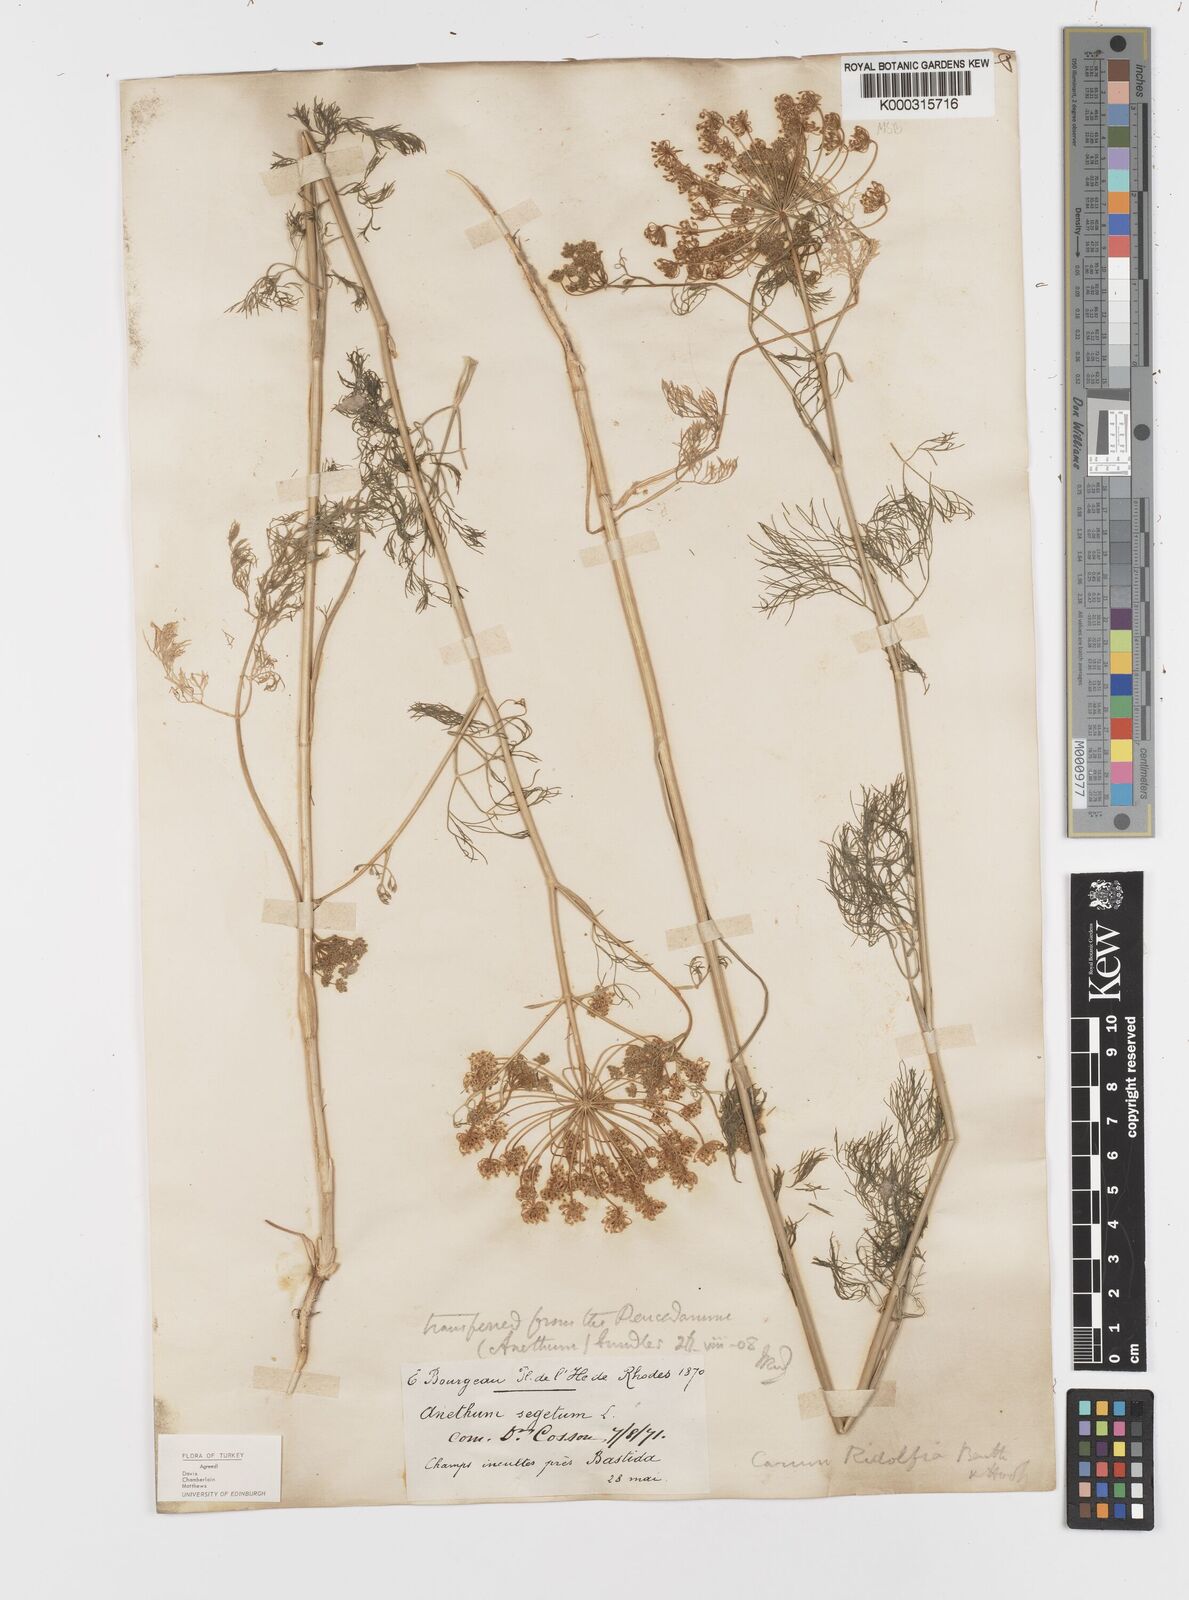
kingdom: Plantae
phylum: Tracheophyta
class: Magnoliopsida
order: Apiales
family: Apiaceae
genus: Anethum
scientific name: Anethum ridolfia
